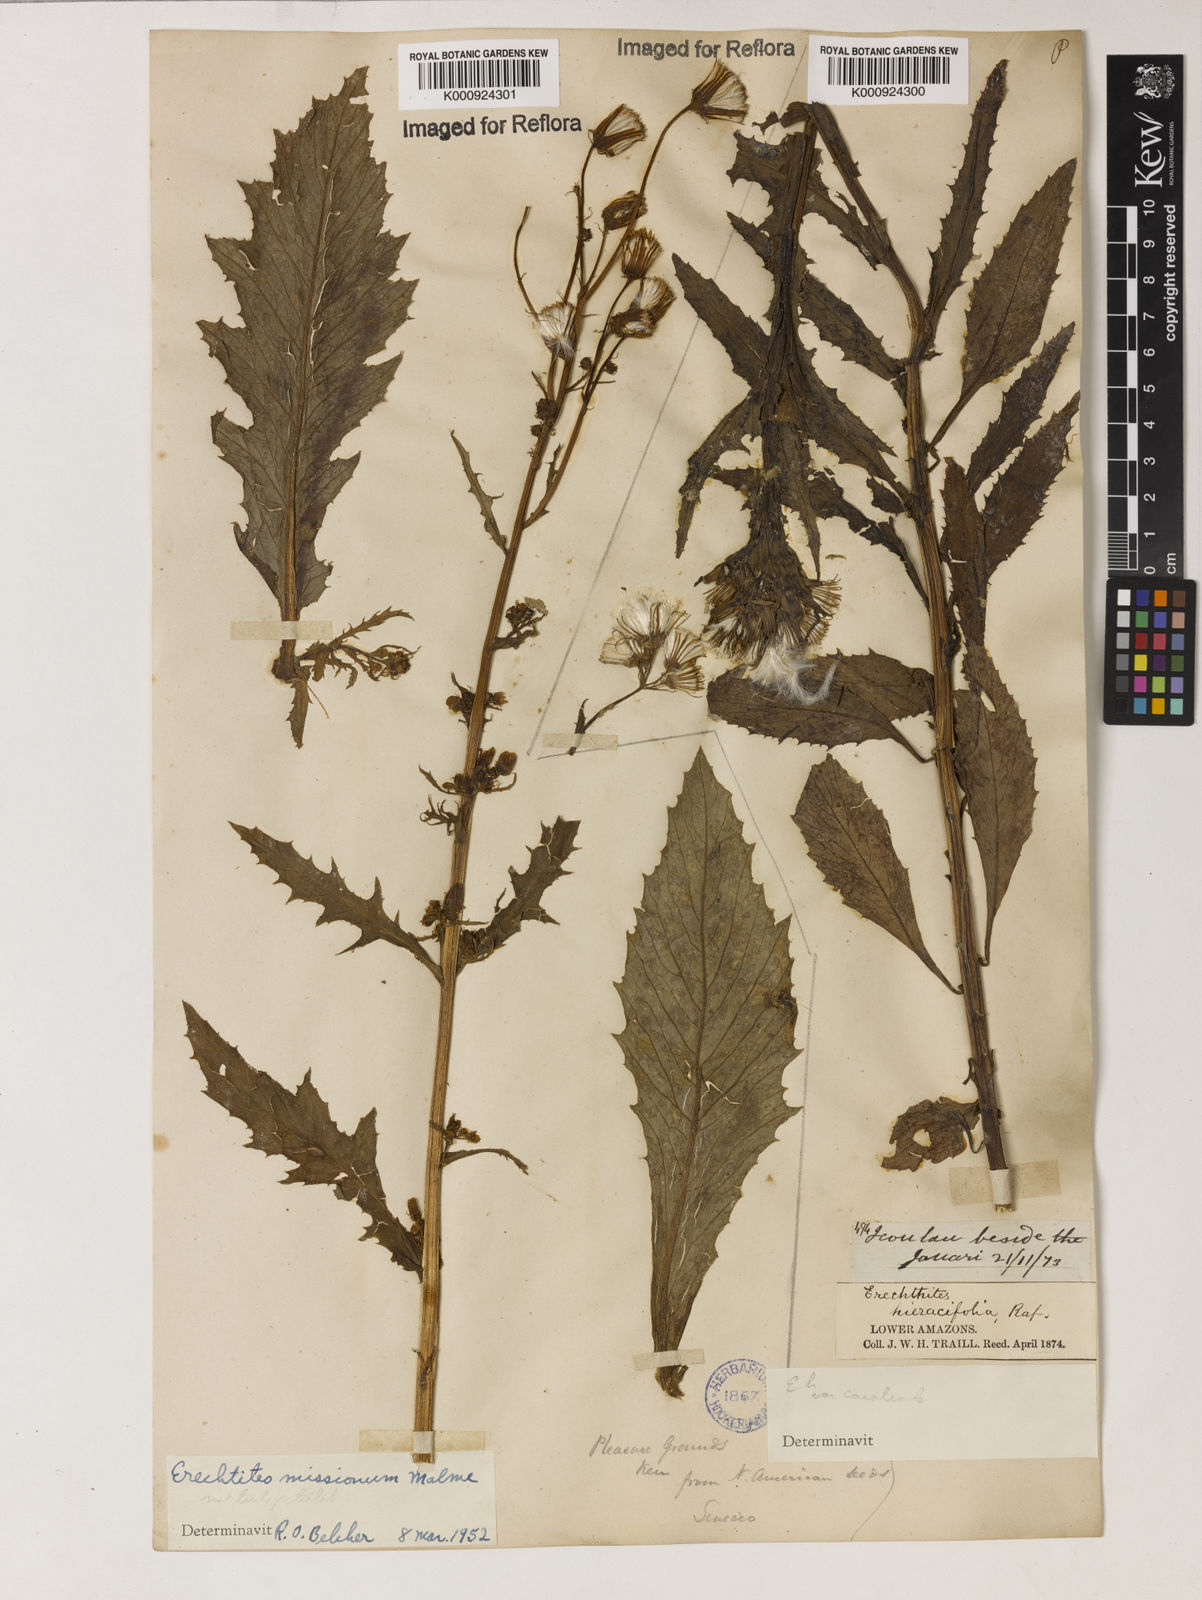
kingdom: Plantae
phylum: Tracheophyta
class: Magnoliopsida
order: Asterales
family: Asteraceae
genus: Erechtites
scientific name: Erechtites missionum
